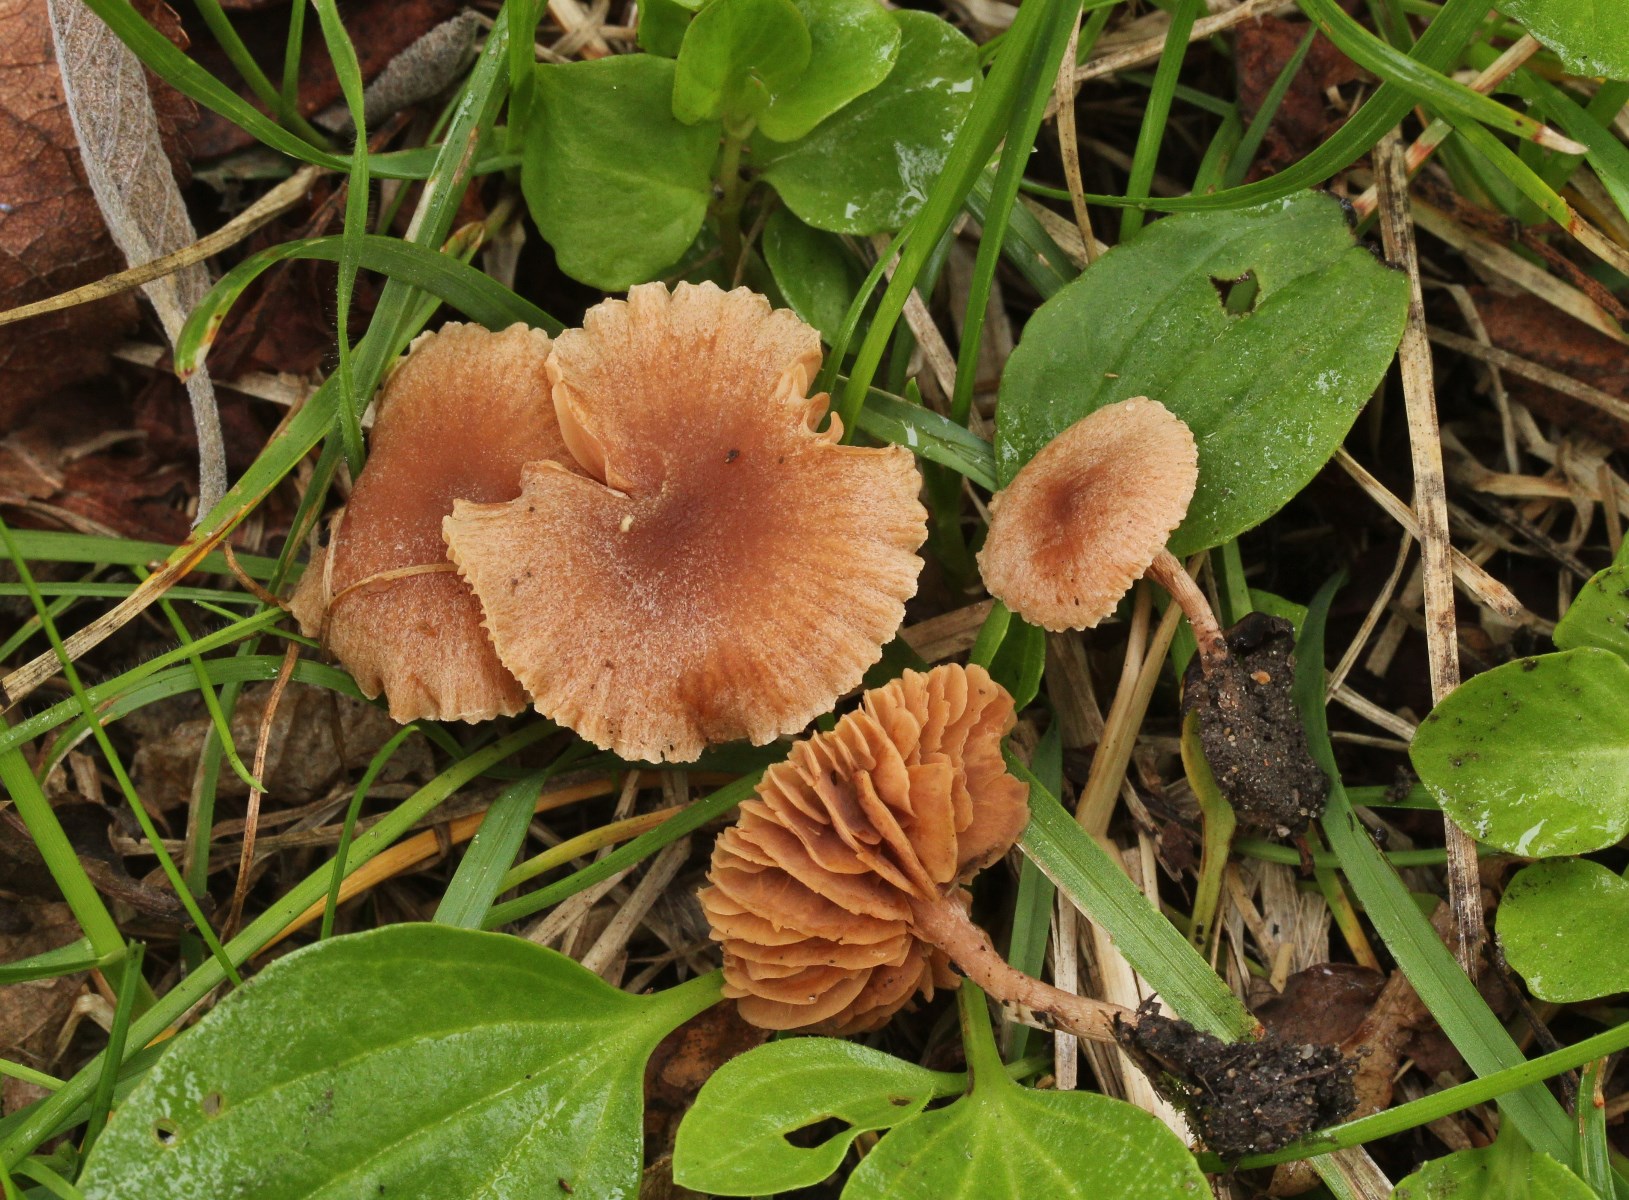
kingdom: Fungi
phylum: Basidiomycota
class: Agaricomycetes
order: Agaricales
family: Tubariaceae
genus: Tubaria
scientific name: Tubaria furfuracea
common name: kliddet fnughat
